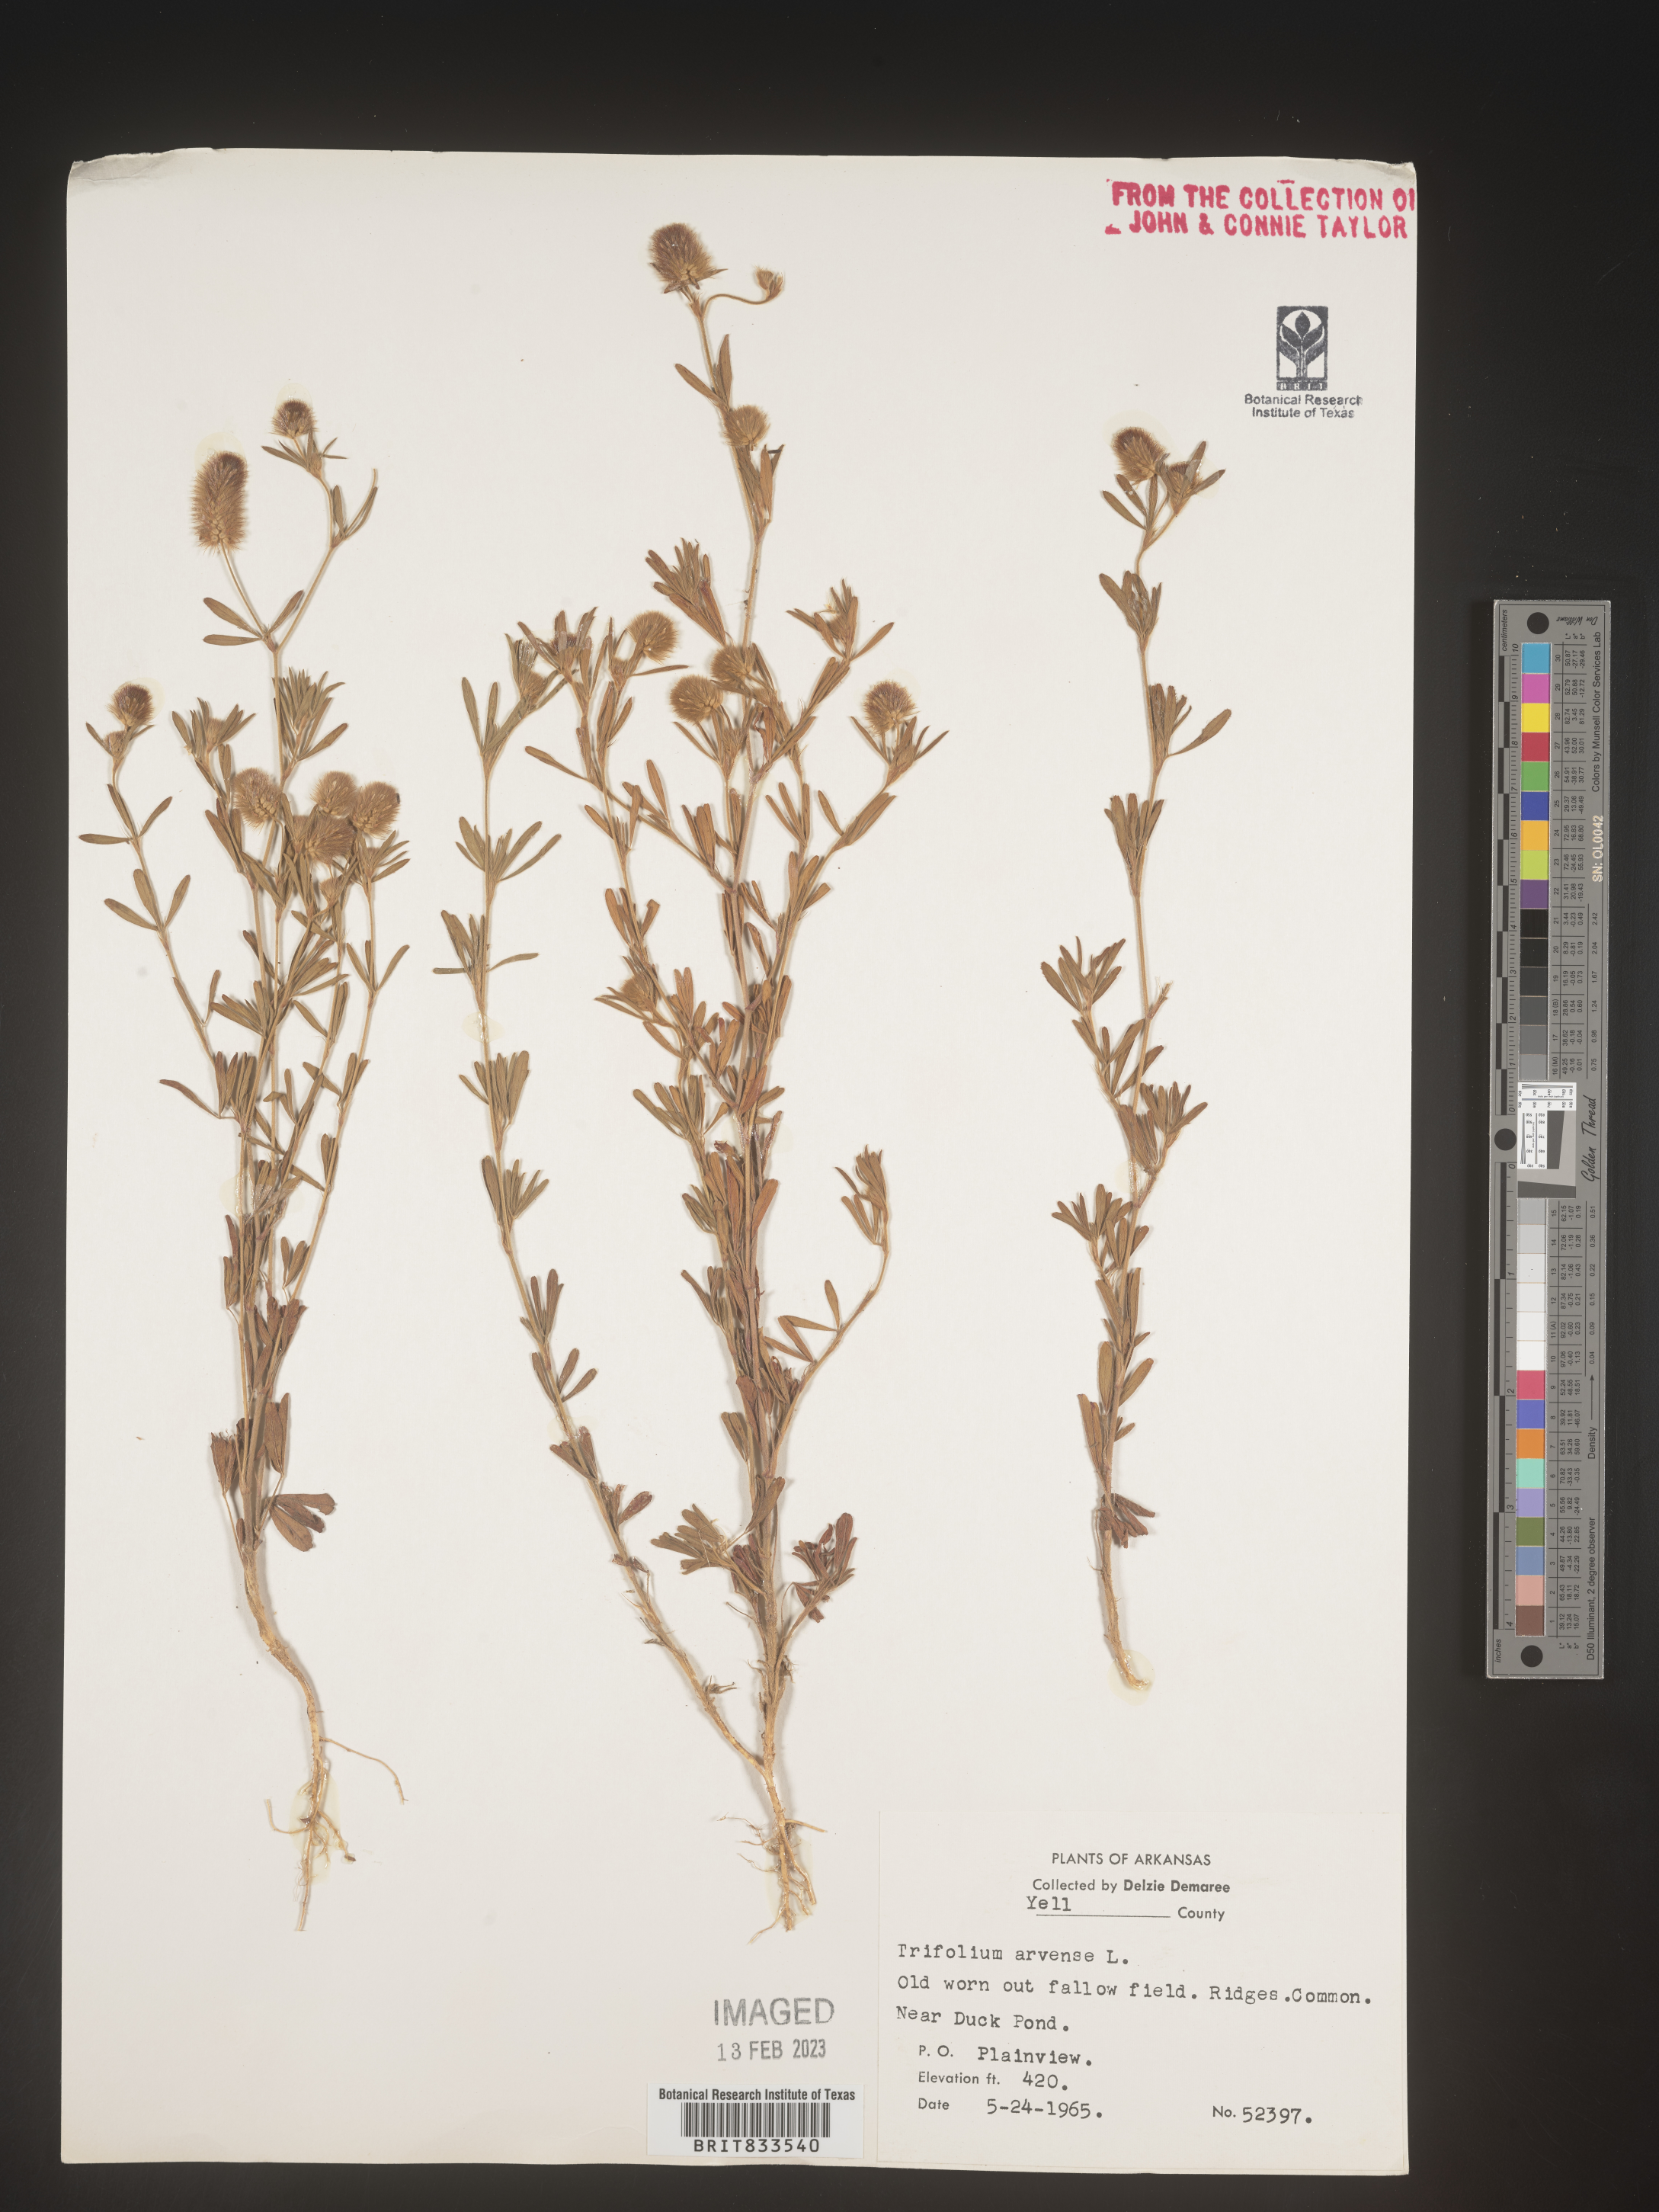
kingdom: Plantae
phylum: Tracheophyta
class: Magnoliopsida
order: Fabales
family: Fabaceae
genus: Trifolium
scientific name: Trifolium arvense
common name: Hare's-foot clover
